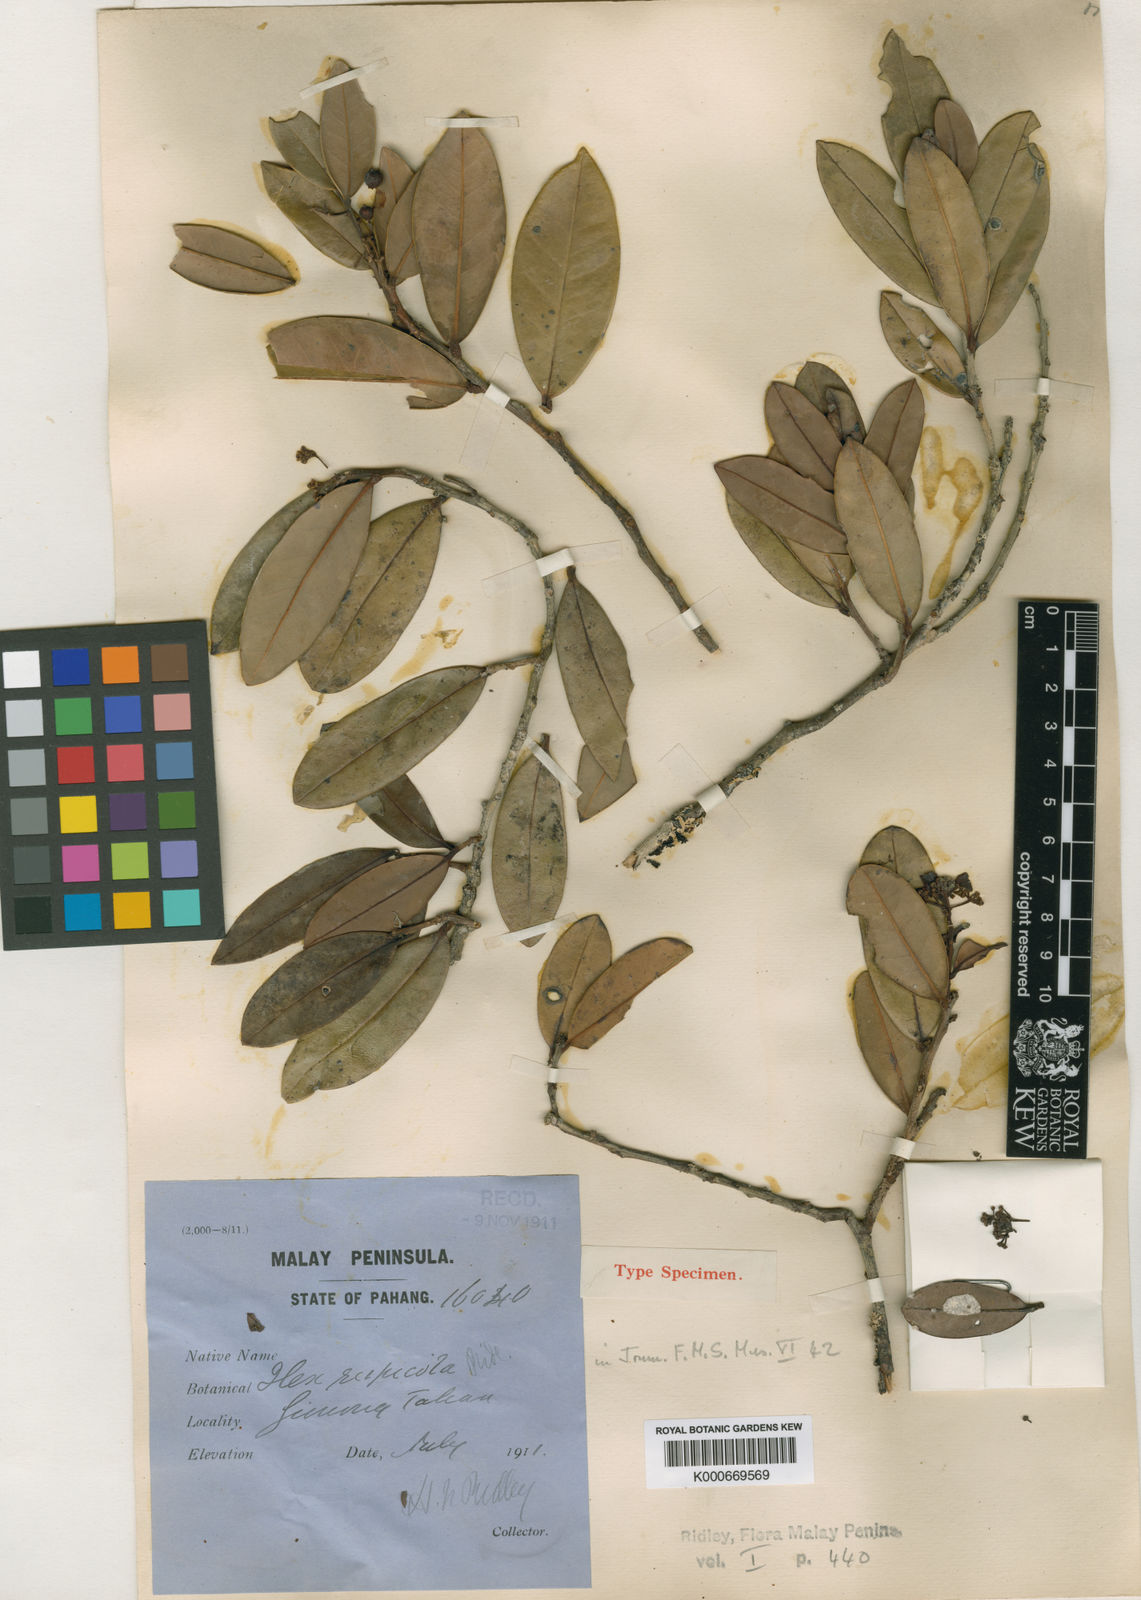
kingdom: Plantae
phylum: Tracheophyta
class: Magnoliopsida
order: Aquifoliales
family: Aquifoliaceae
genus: Ilex
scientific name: Ilex tahanensis
